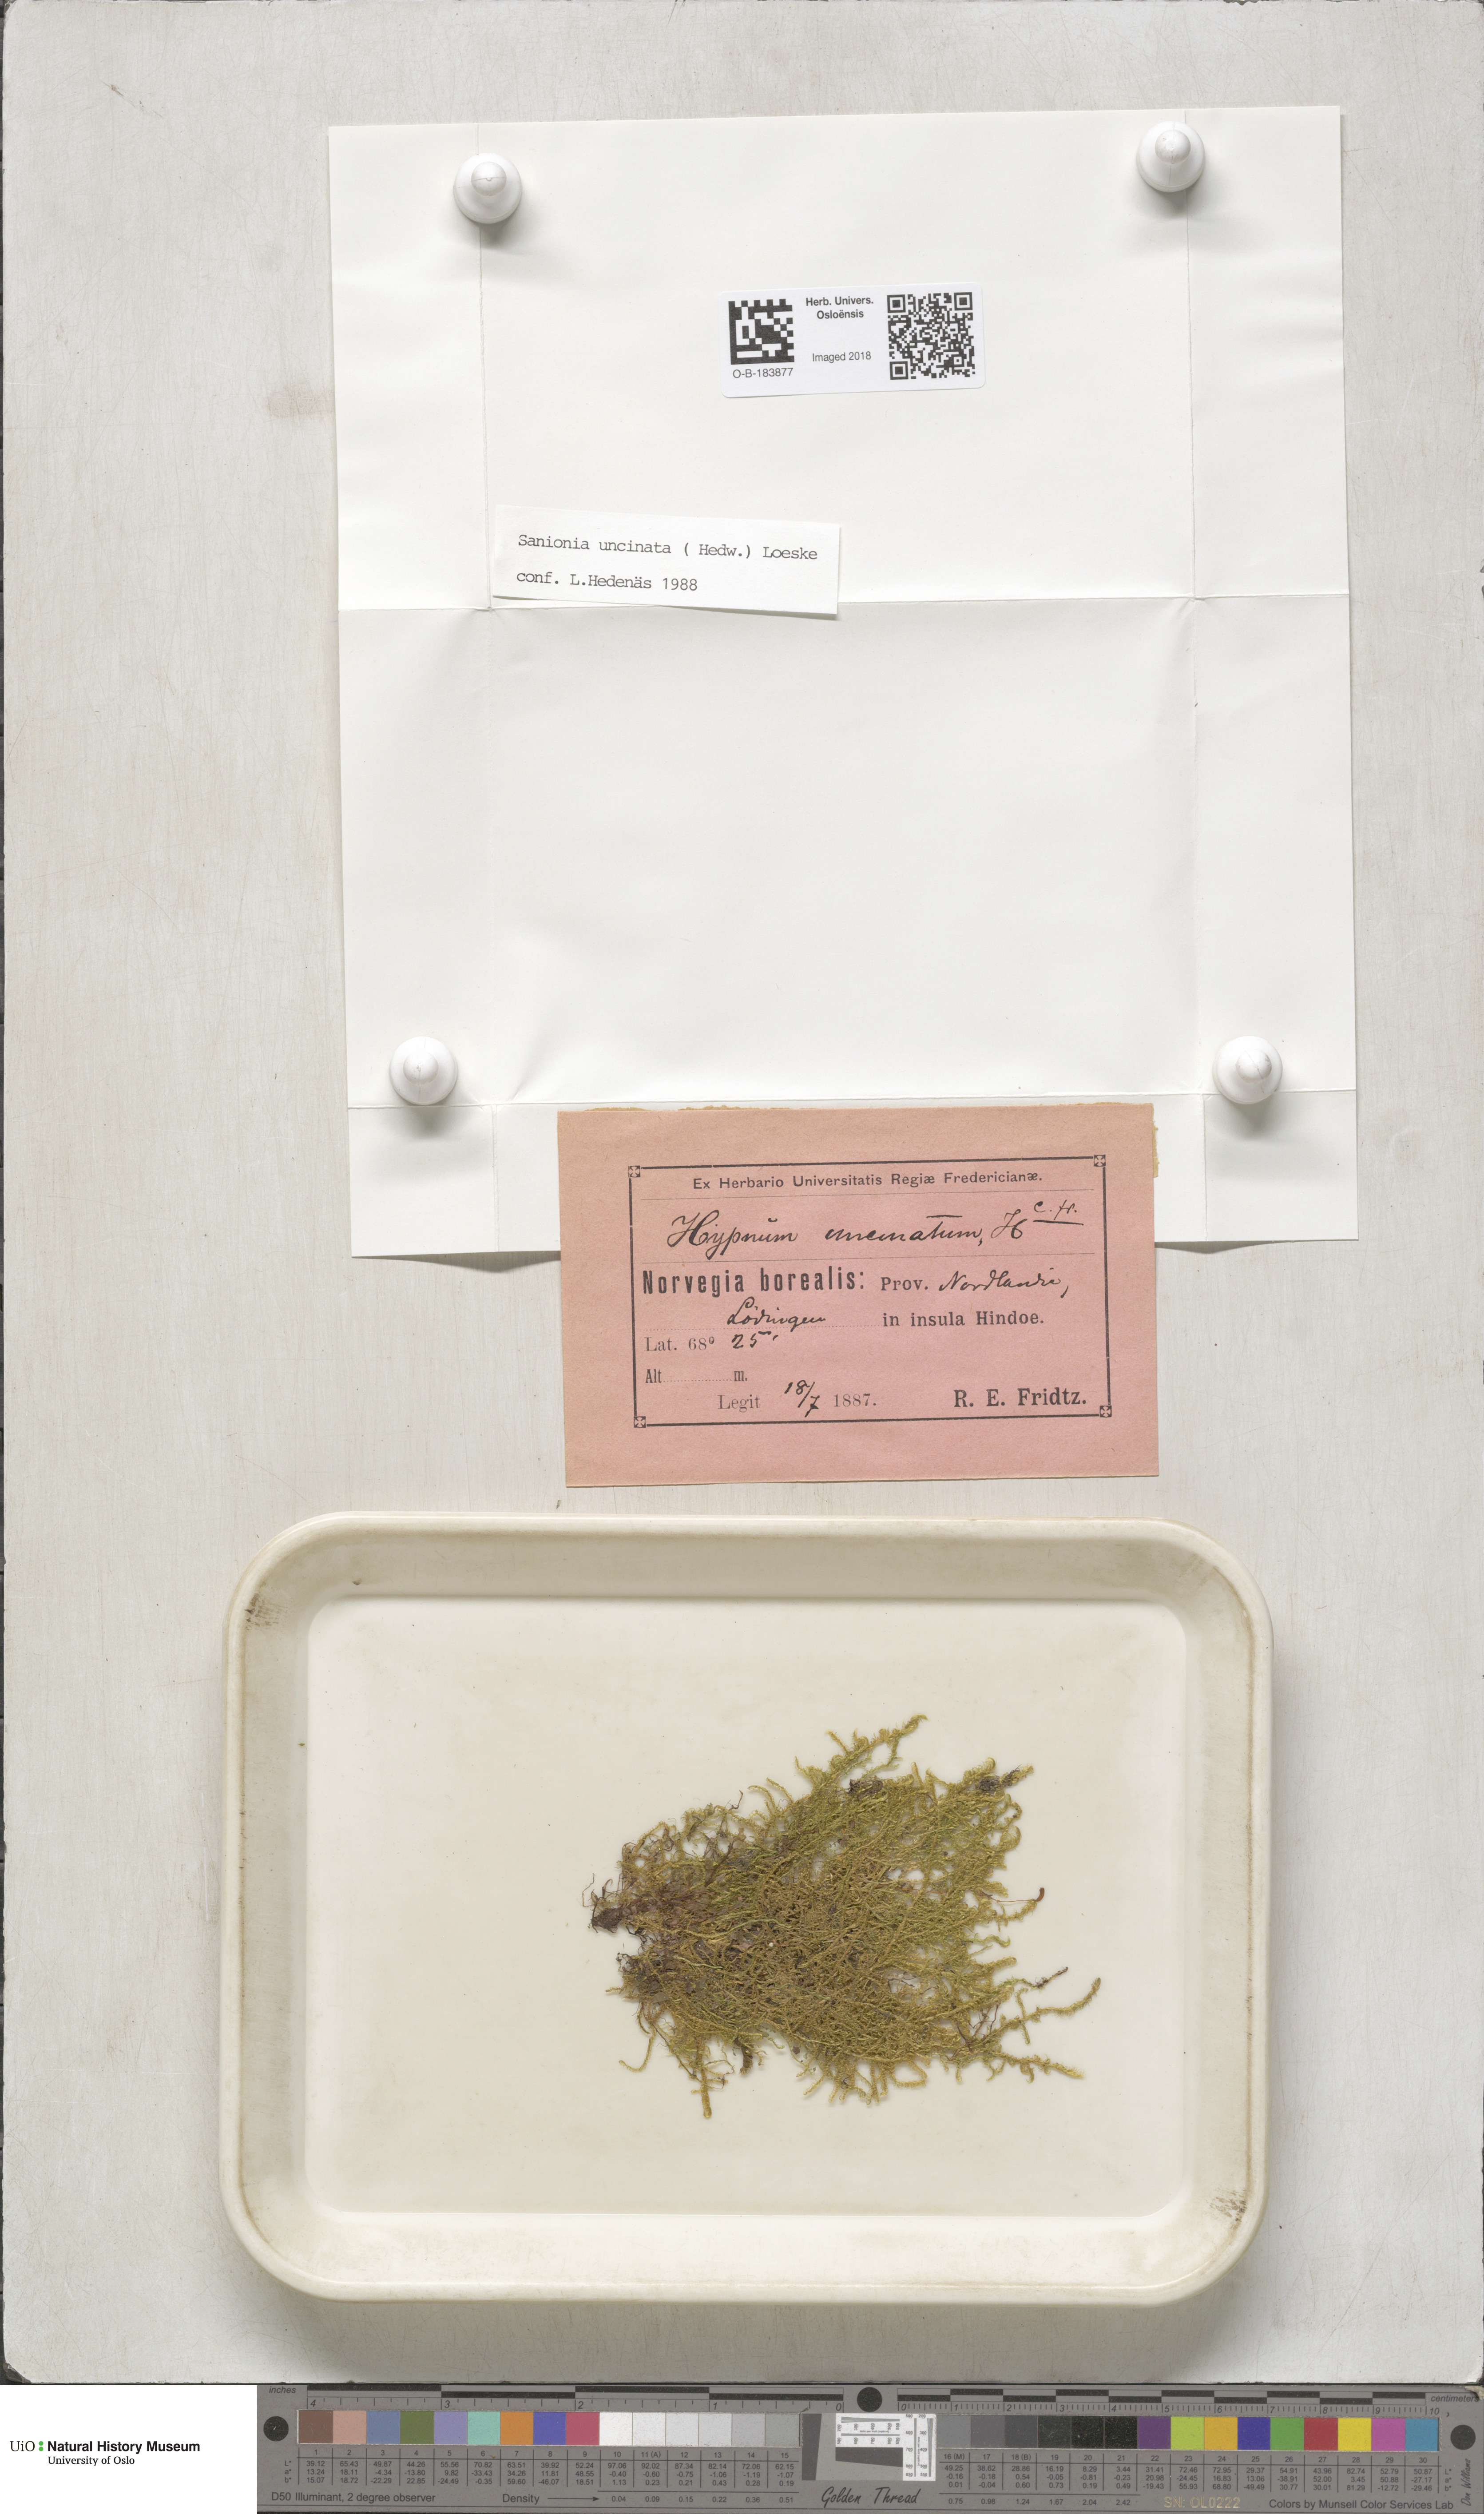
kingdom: Plantae
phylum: Bryophyta
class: Bryopsida
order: Hypnales
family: Scorpidiaceae
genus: Sanionia
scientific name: Sanionia uncinata
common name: Sickle moss
